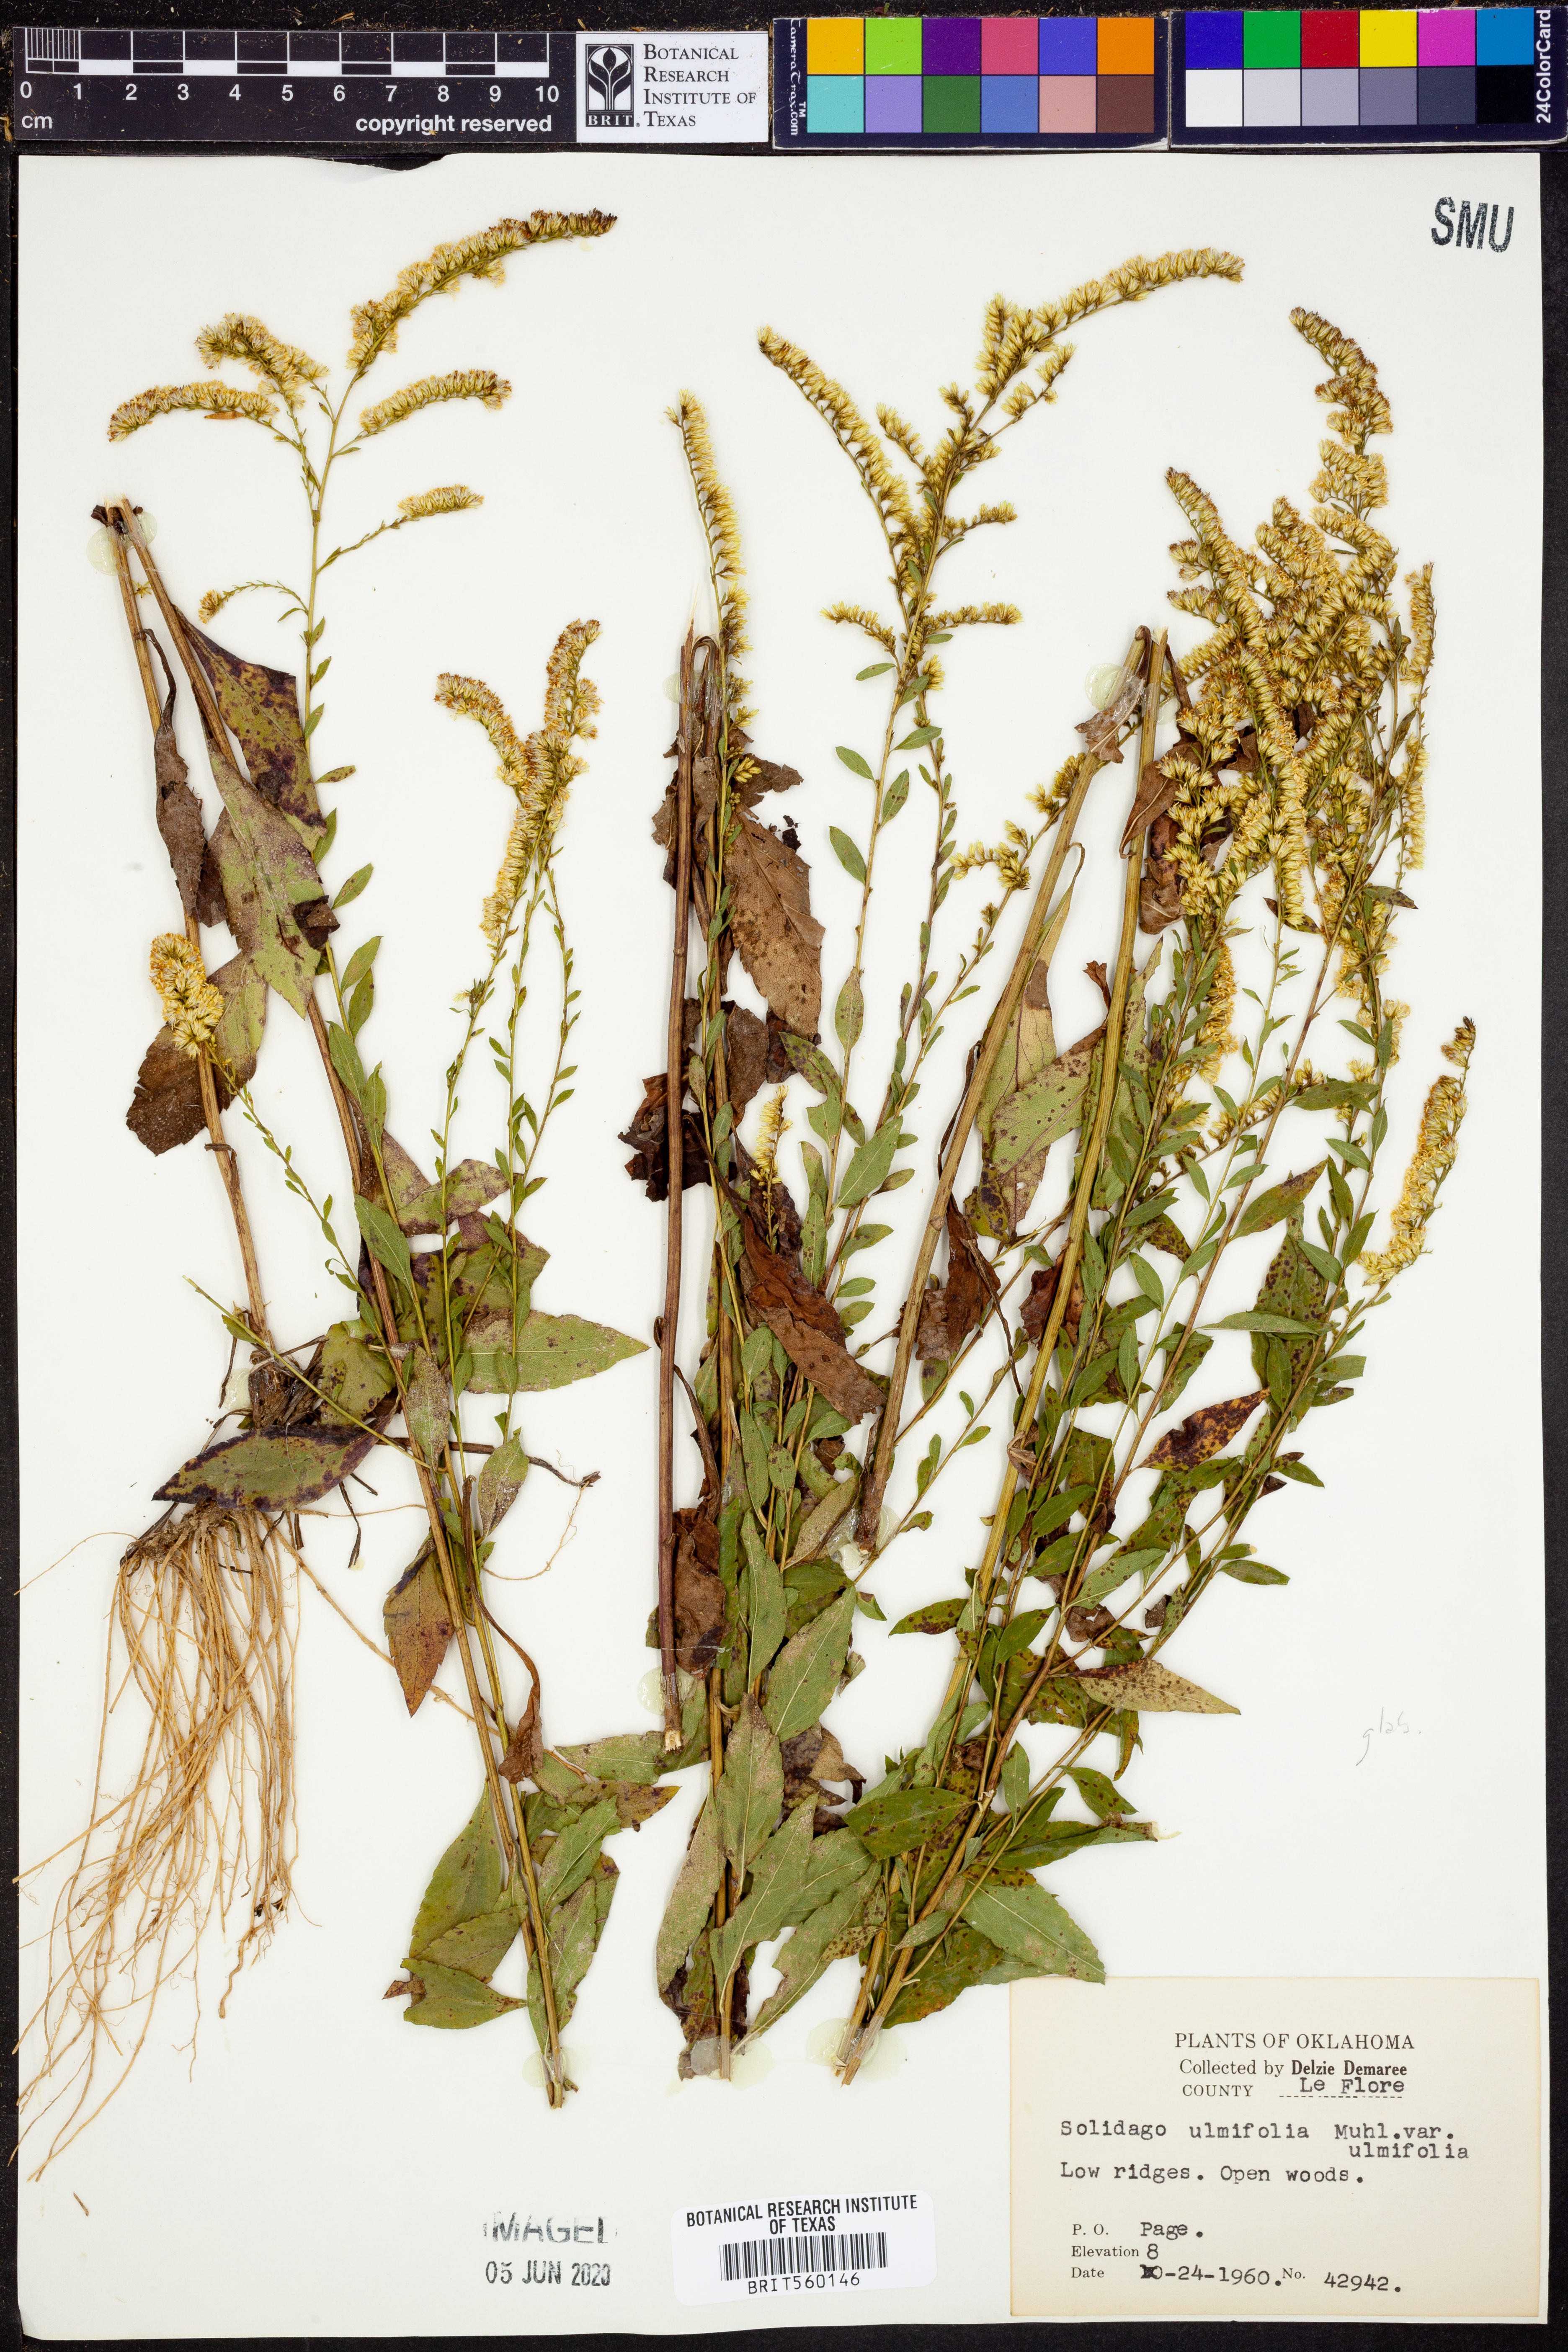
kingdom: Plantae
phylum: Tracheophyta
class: Magnoliopsida
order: Asterales
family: Asteraceae
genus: Solidago
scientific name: Solidago ulmifolia
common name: Elm-leaf goldenrod
